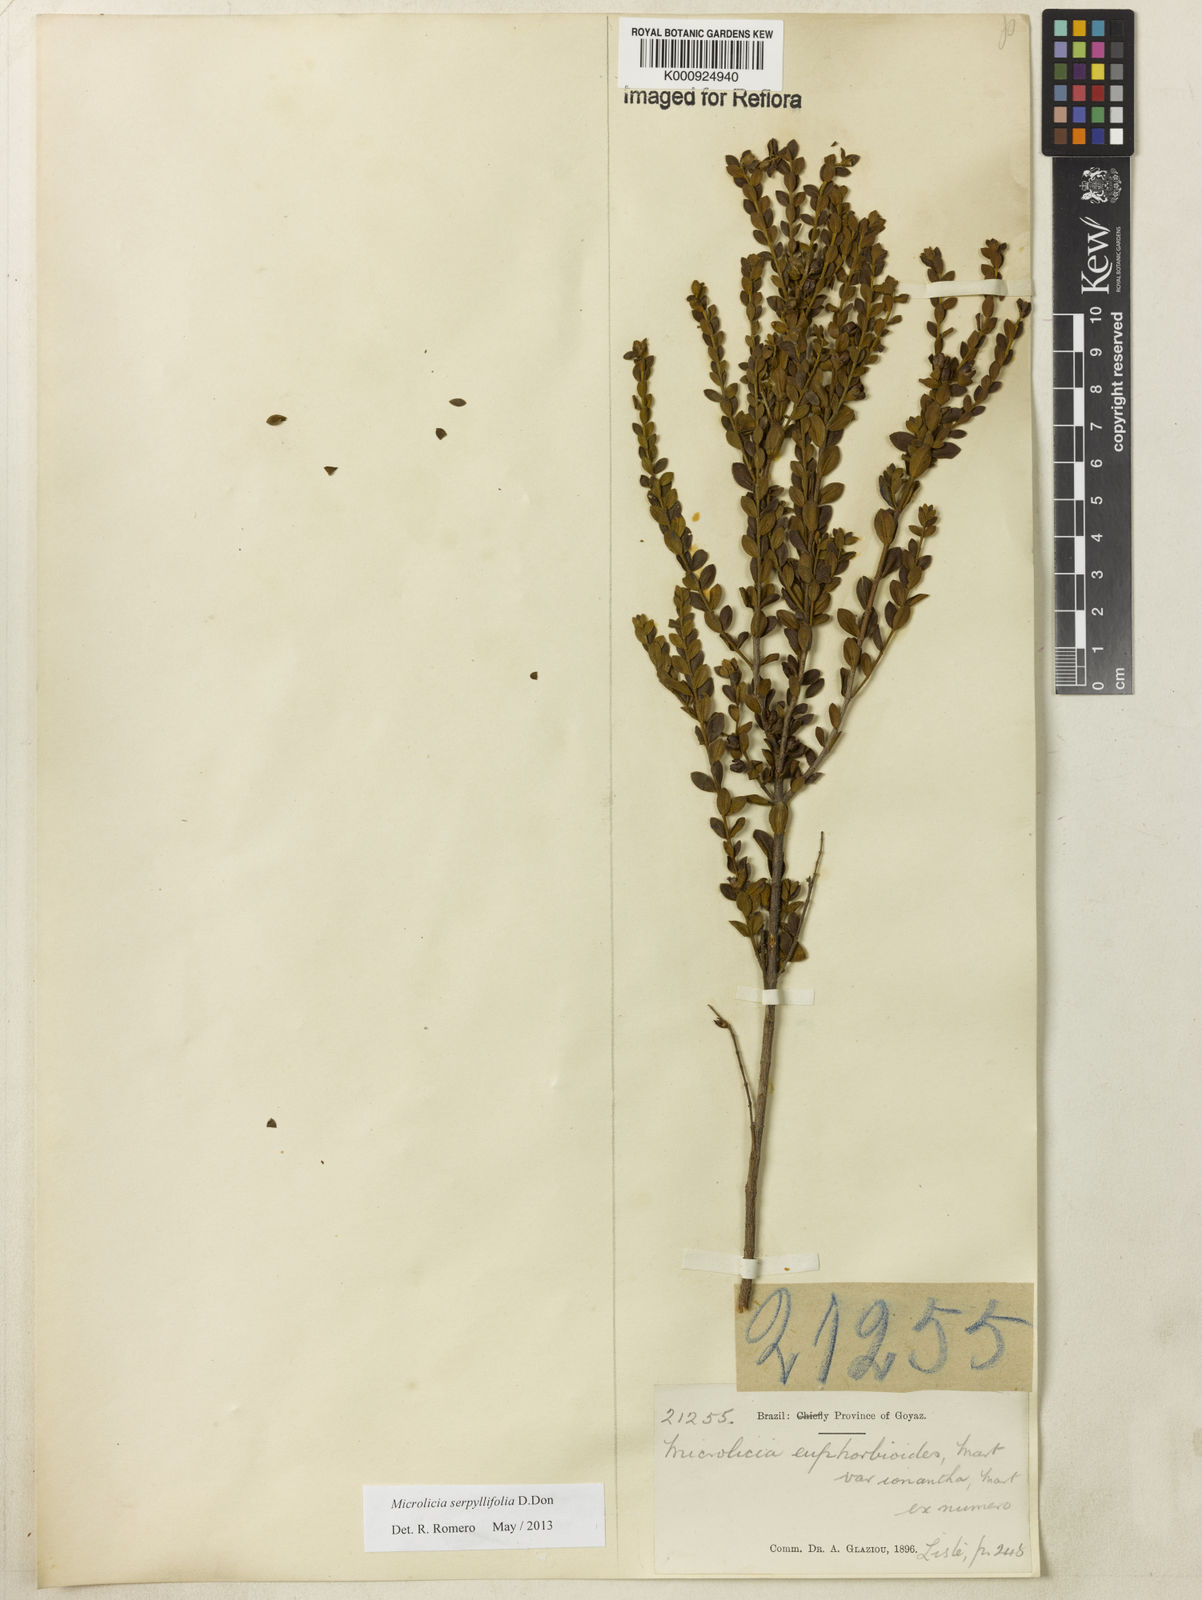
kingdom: Plantae
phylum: Tracheophyta
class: Magnoliopsida
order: Myrtales
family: Melastomataceae
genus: Microlicia
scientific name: Microlicia fulva
